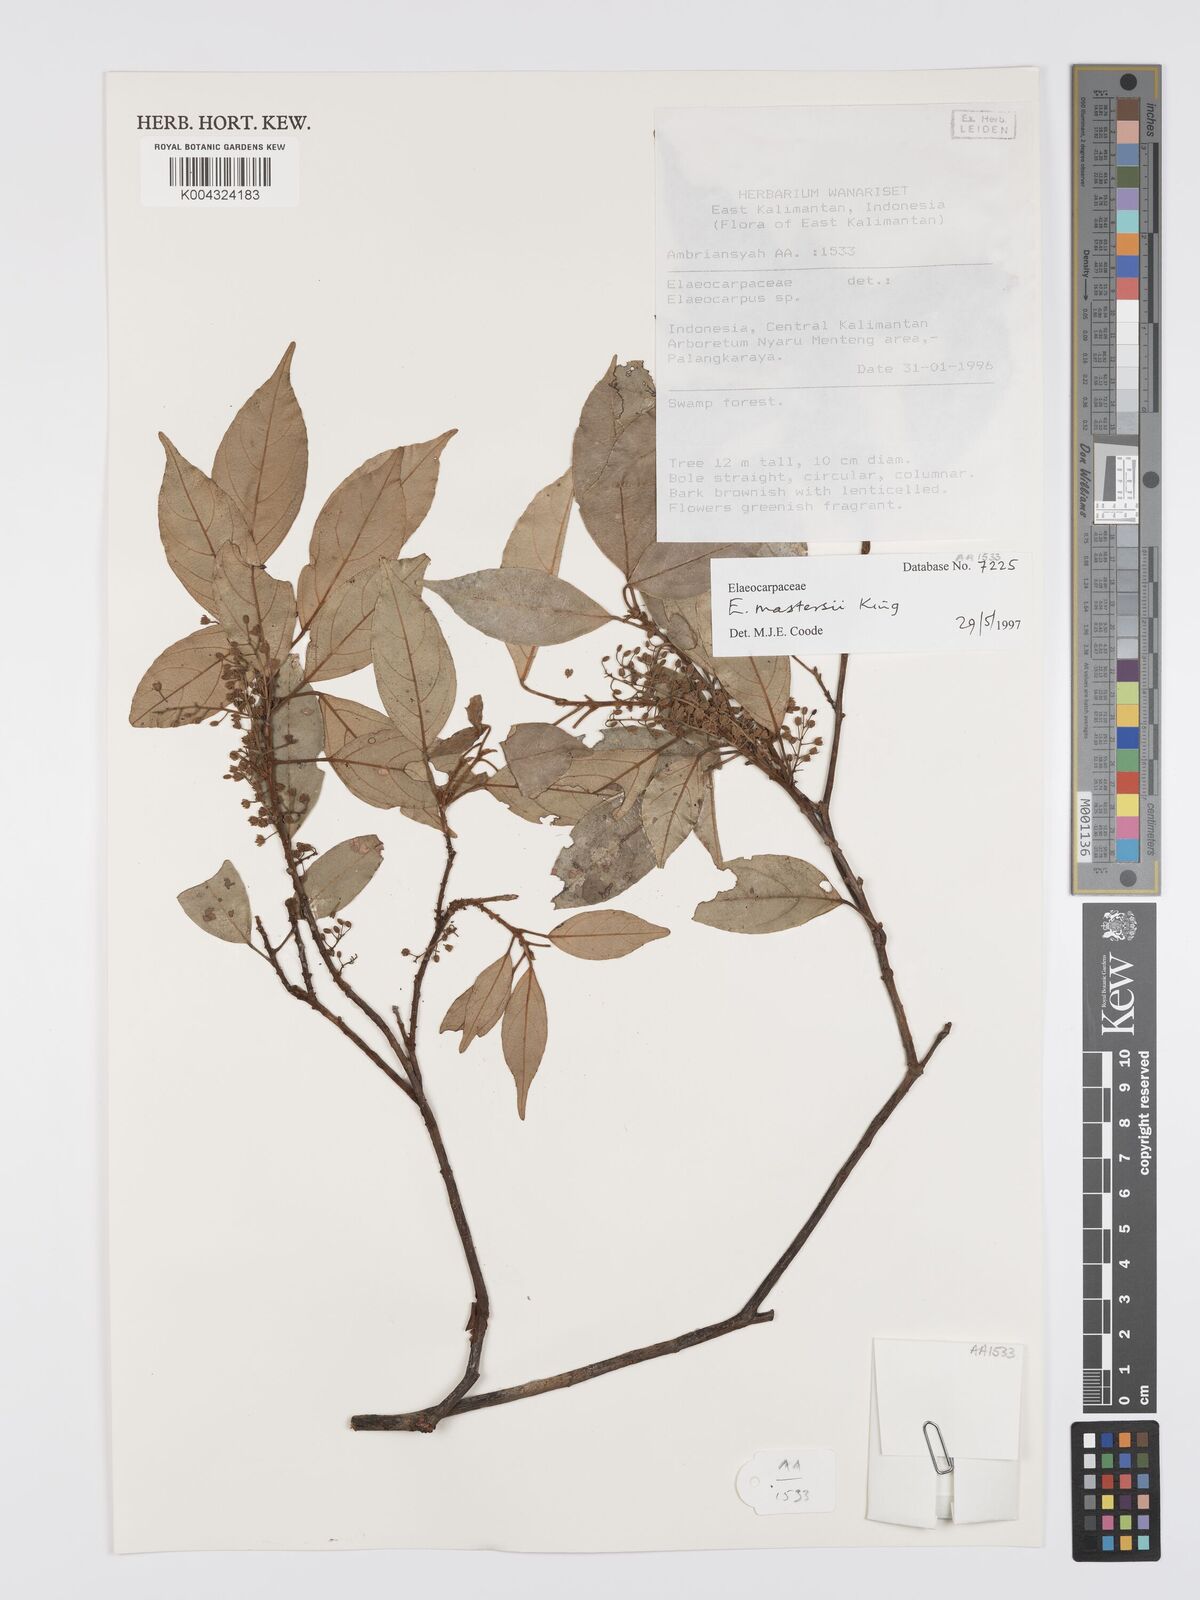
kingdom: Plantae
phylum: Tracheophyta
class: Magnoliopsida
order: Oxalidales
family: Elaeocarpaceae
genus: Elaeocarpus
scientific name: Elaeocarpus mastersii
